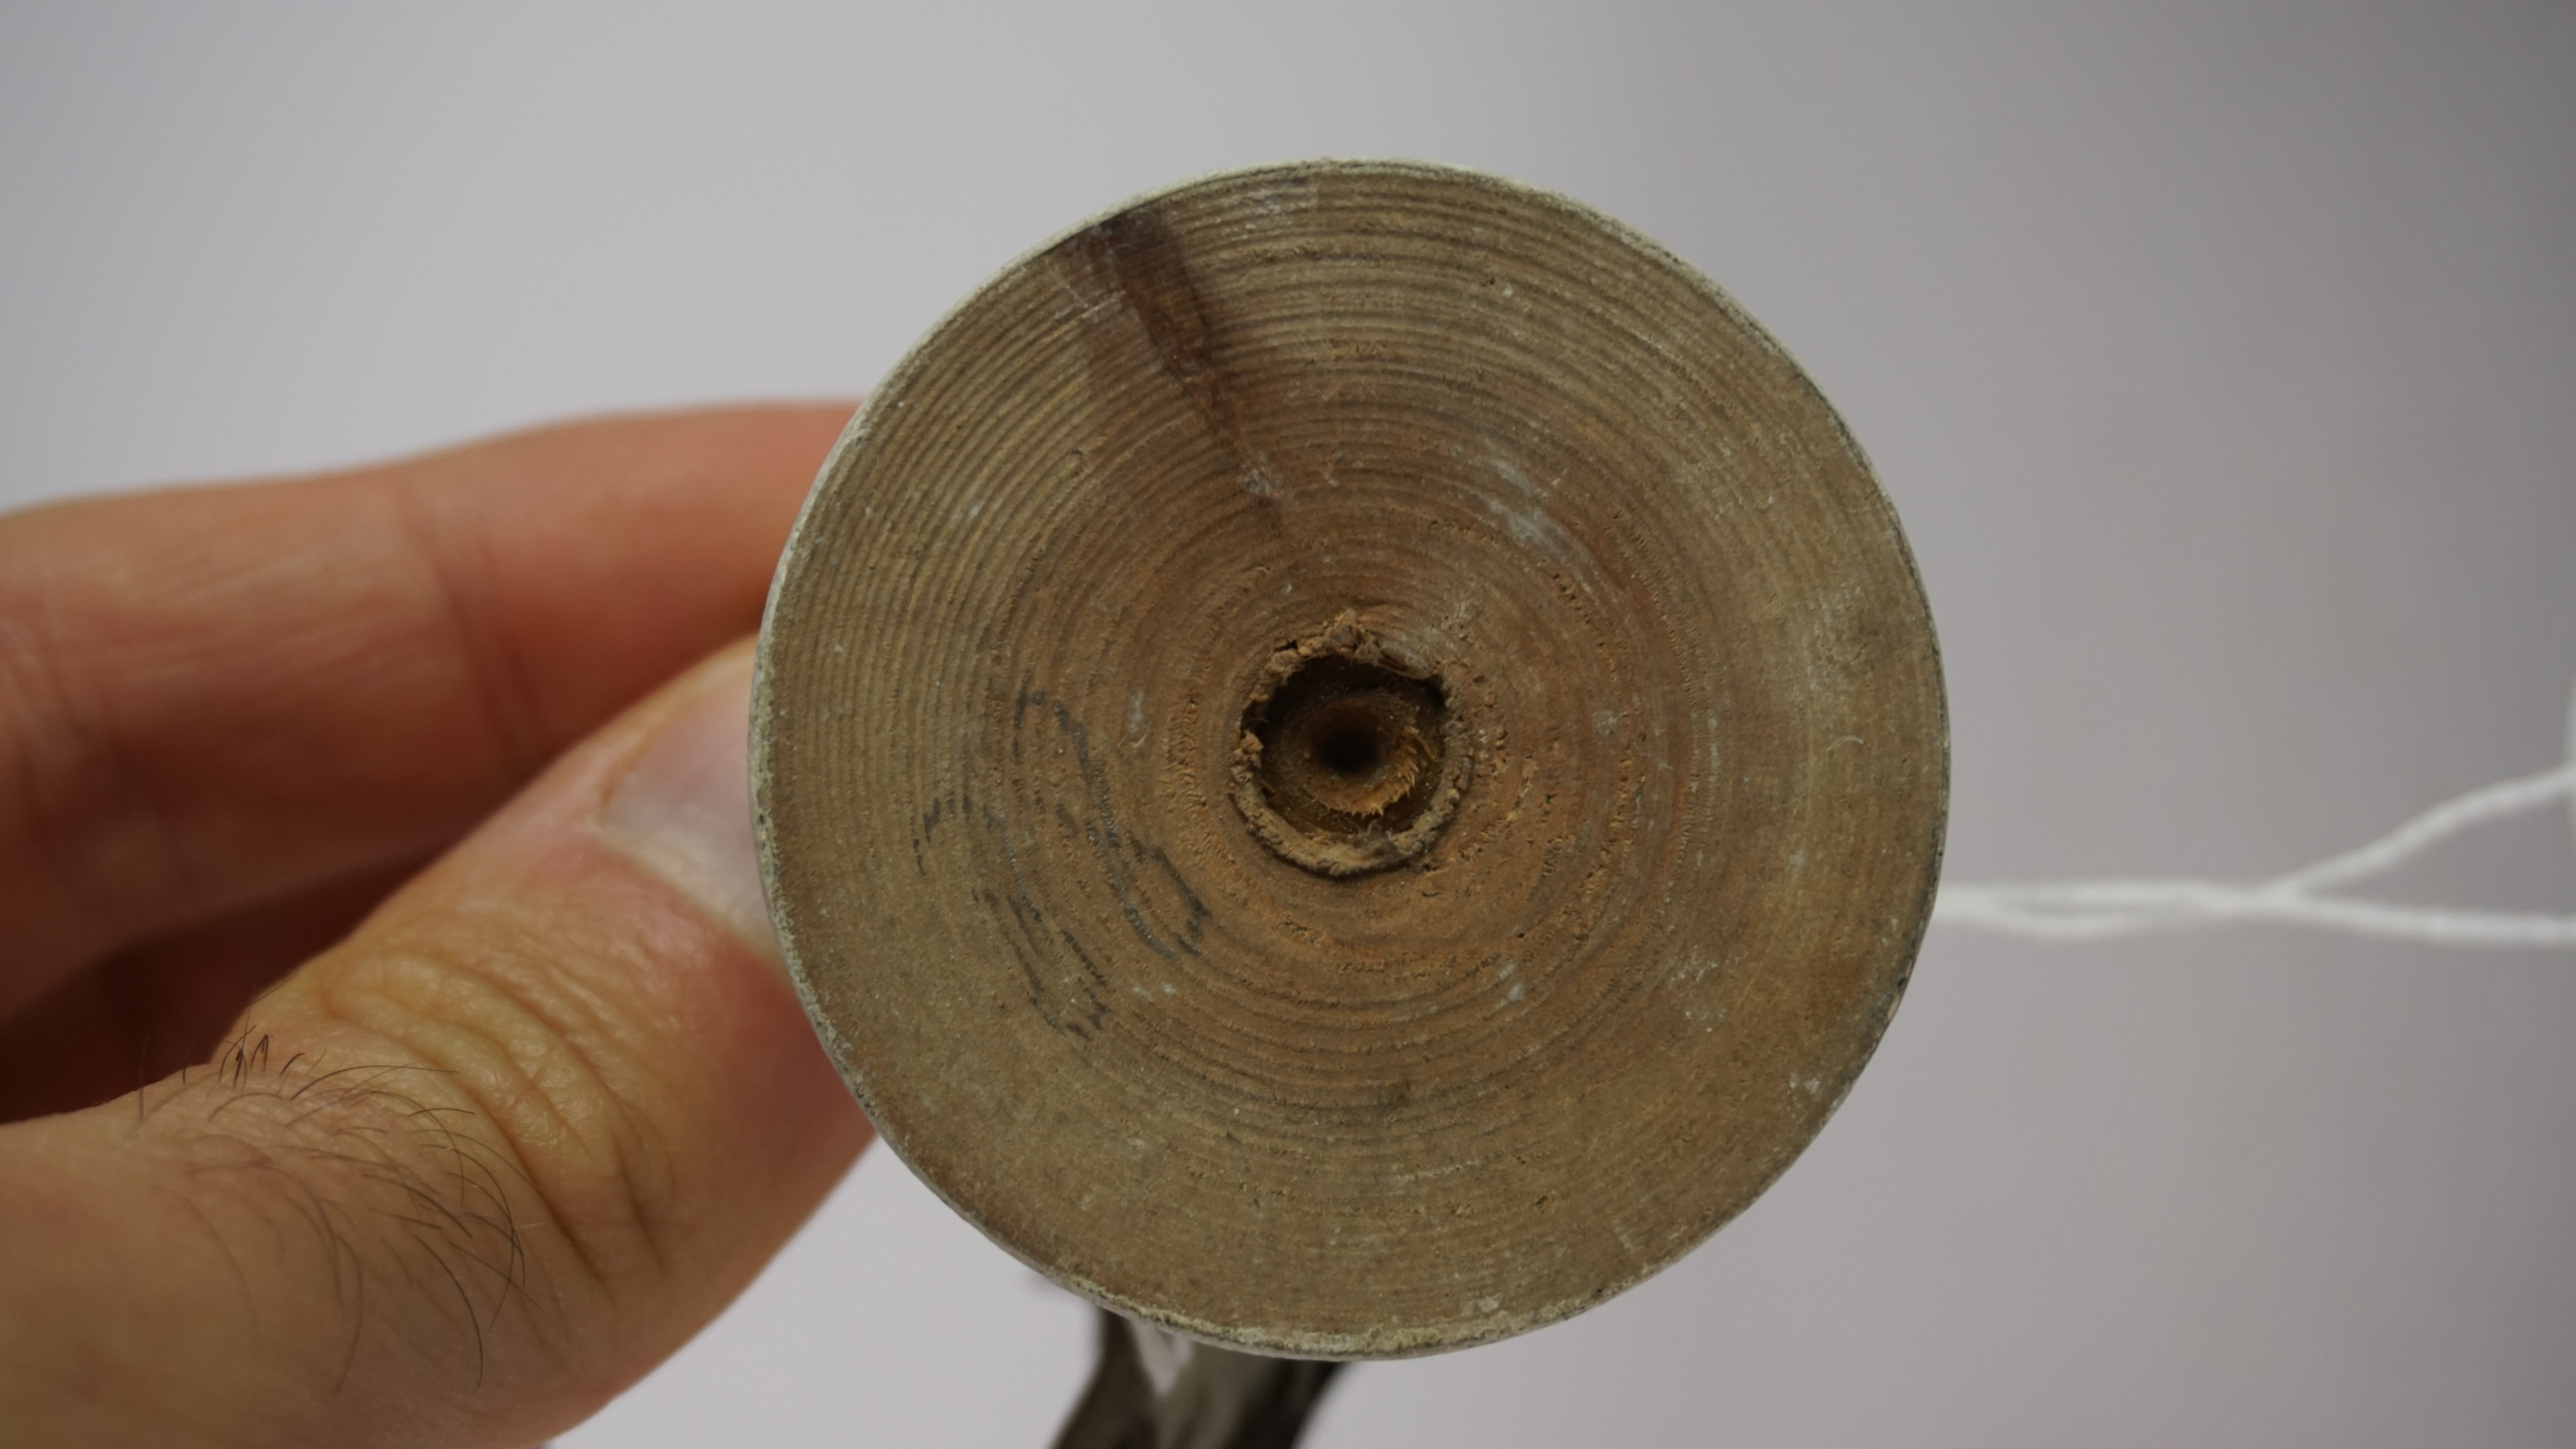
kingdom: Animalia
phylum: Chordata
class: Aves
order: Passeriformes
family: Viduidae
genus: Vidua
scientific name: Vidua macroura
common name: Pin-tailed whydah
